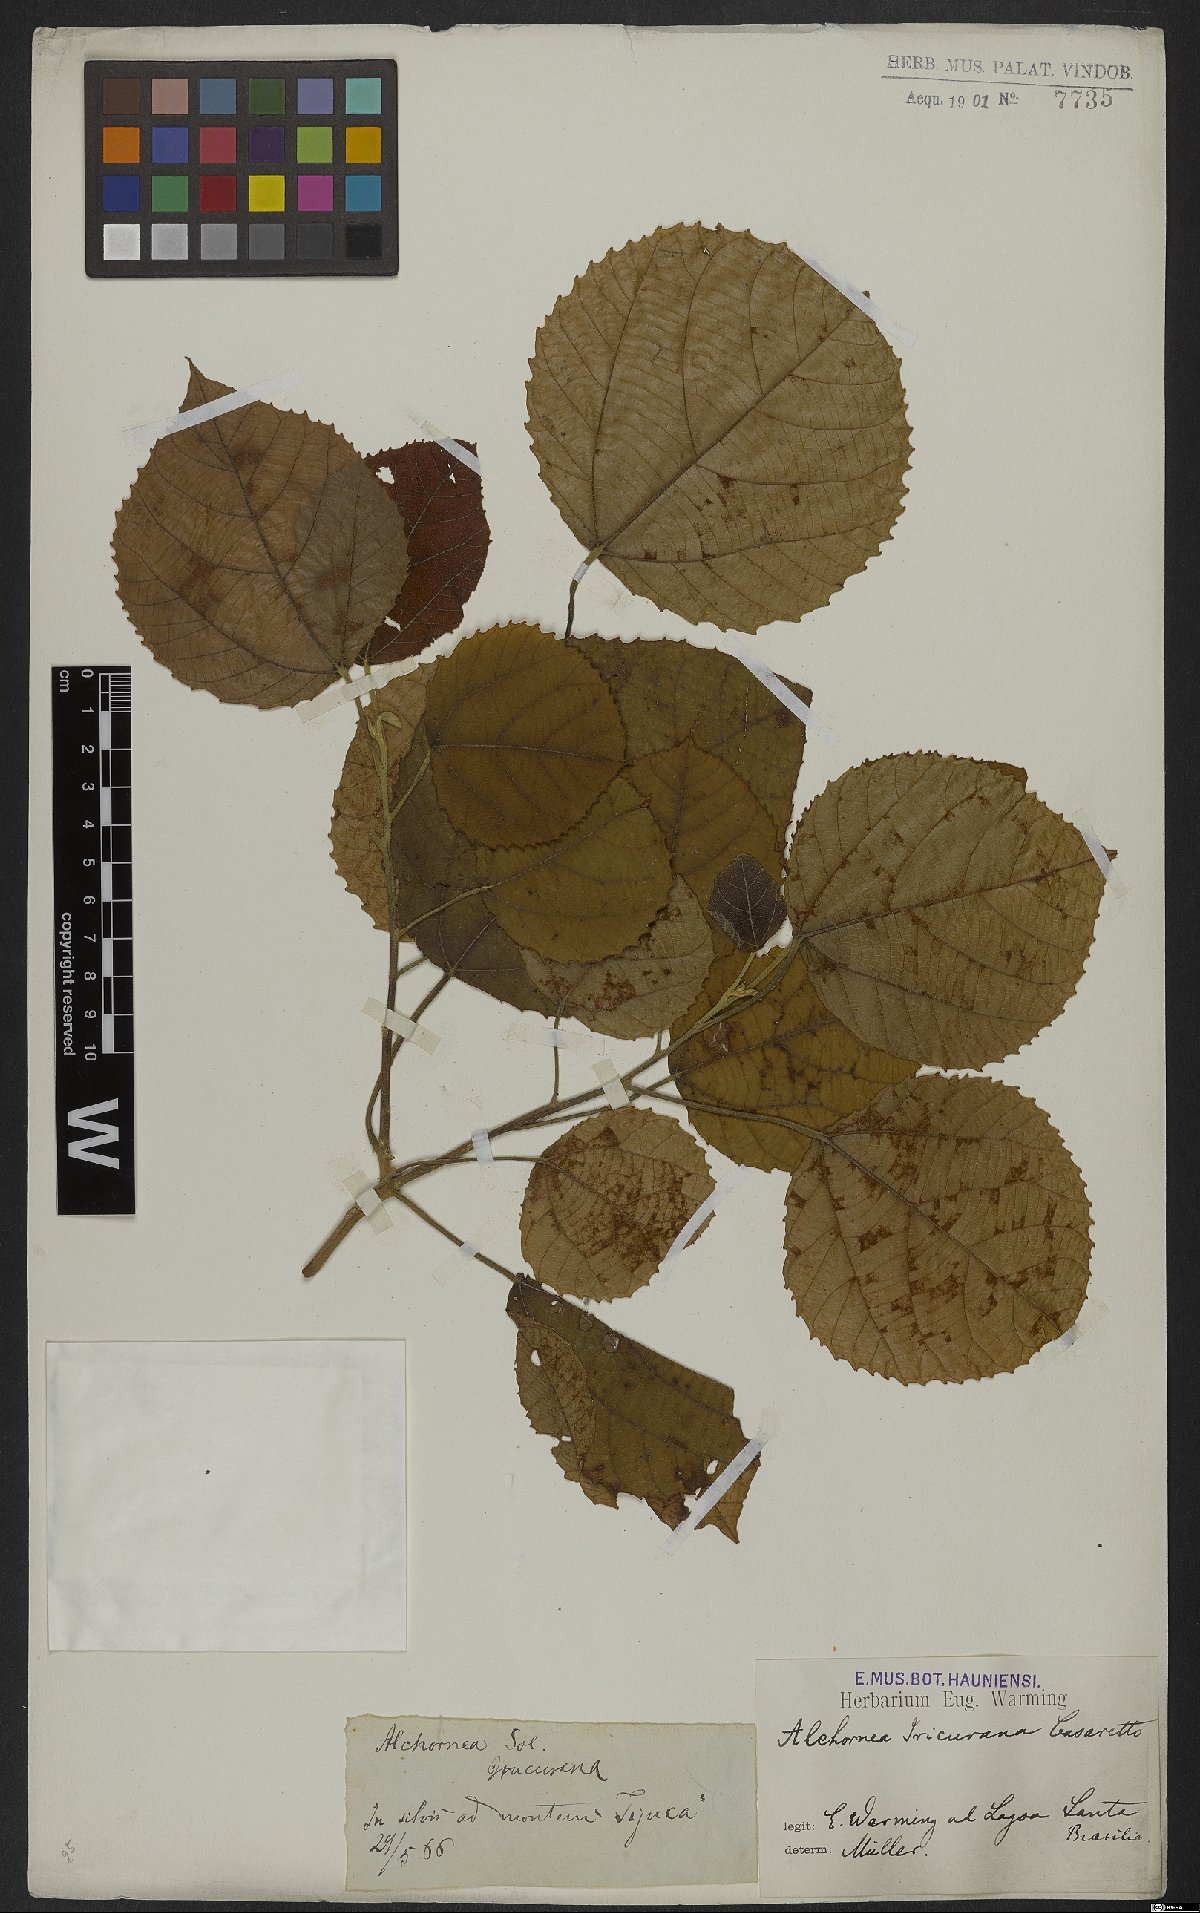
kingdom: Plantae
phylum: Tracheophyta
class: Magnoliopsida
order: Malpighiales
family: Euphorbiaceae
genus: Alchornea
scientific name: Alchornea glandulosa
